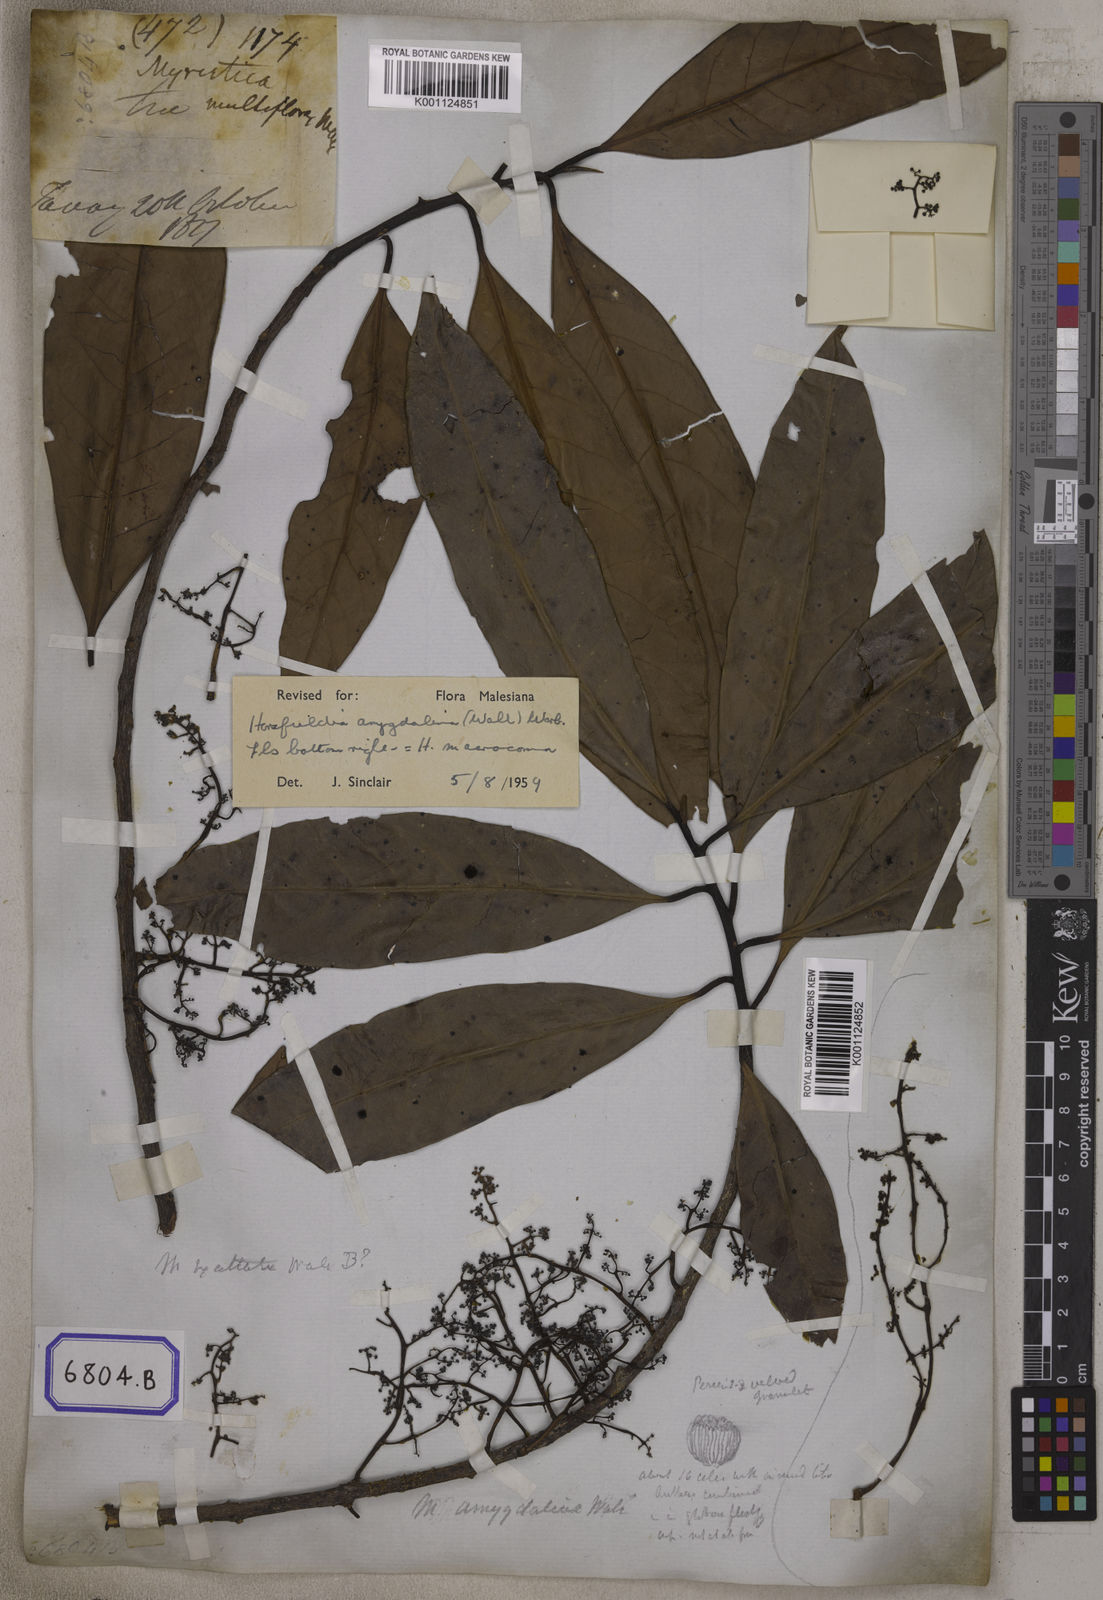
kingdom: Plantae
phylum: Tracheophyta
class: Magnoliopsida
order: Magnoliales
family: Myristicaceae
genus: Myristica
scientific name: Myristica
